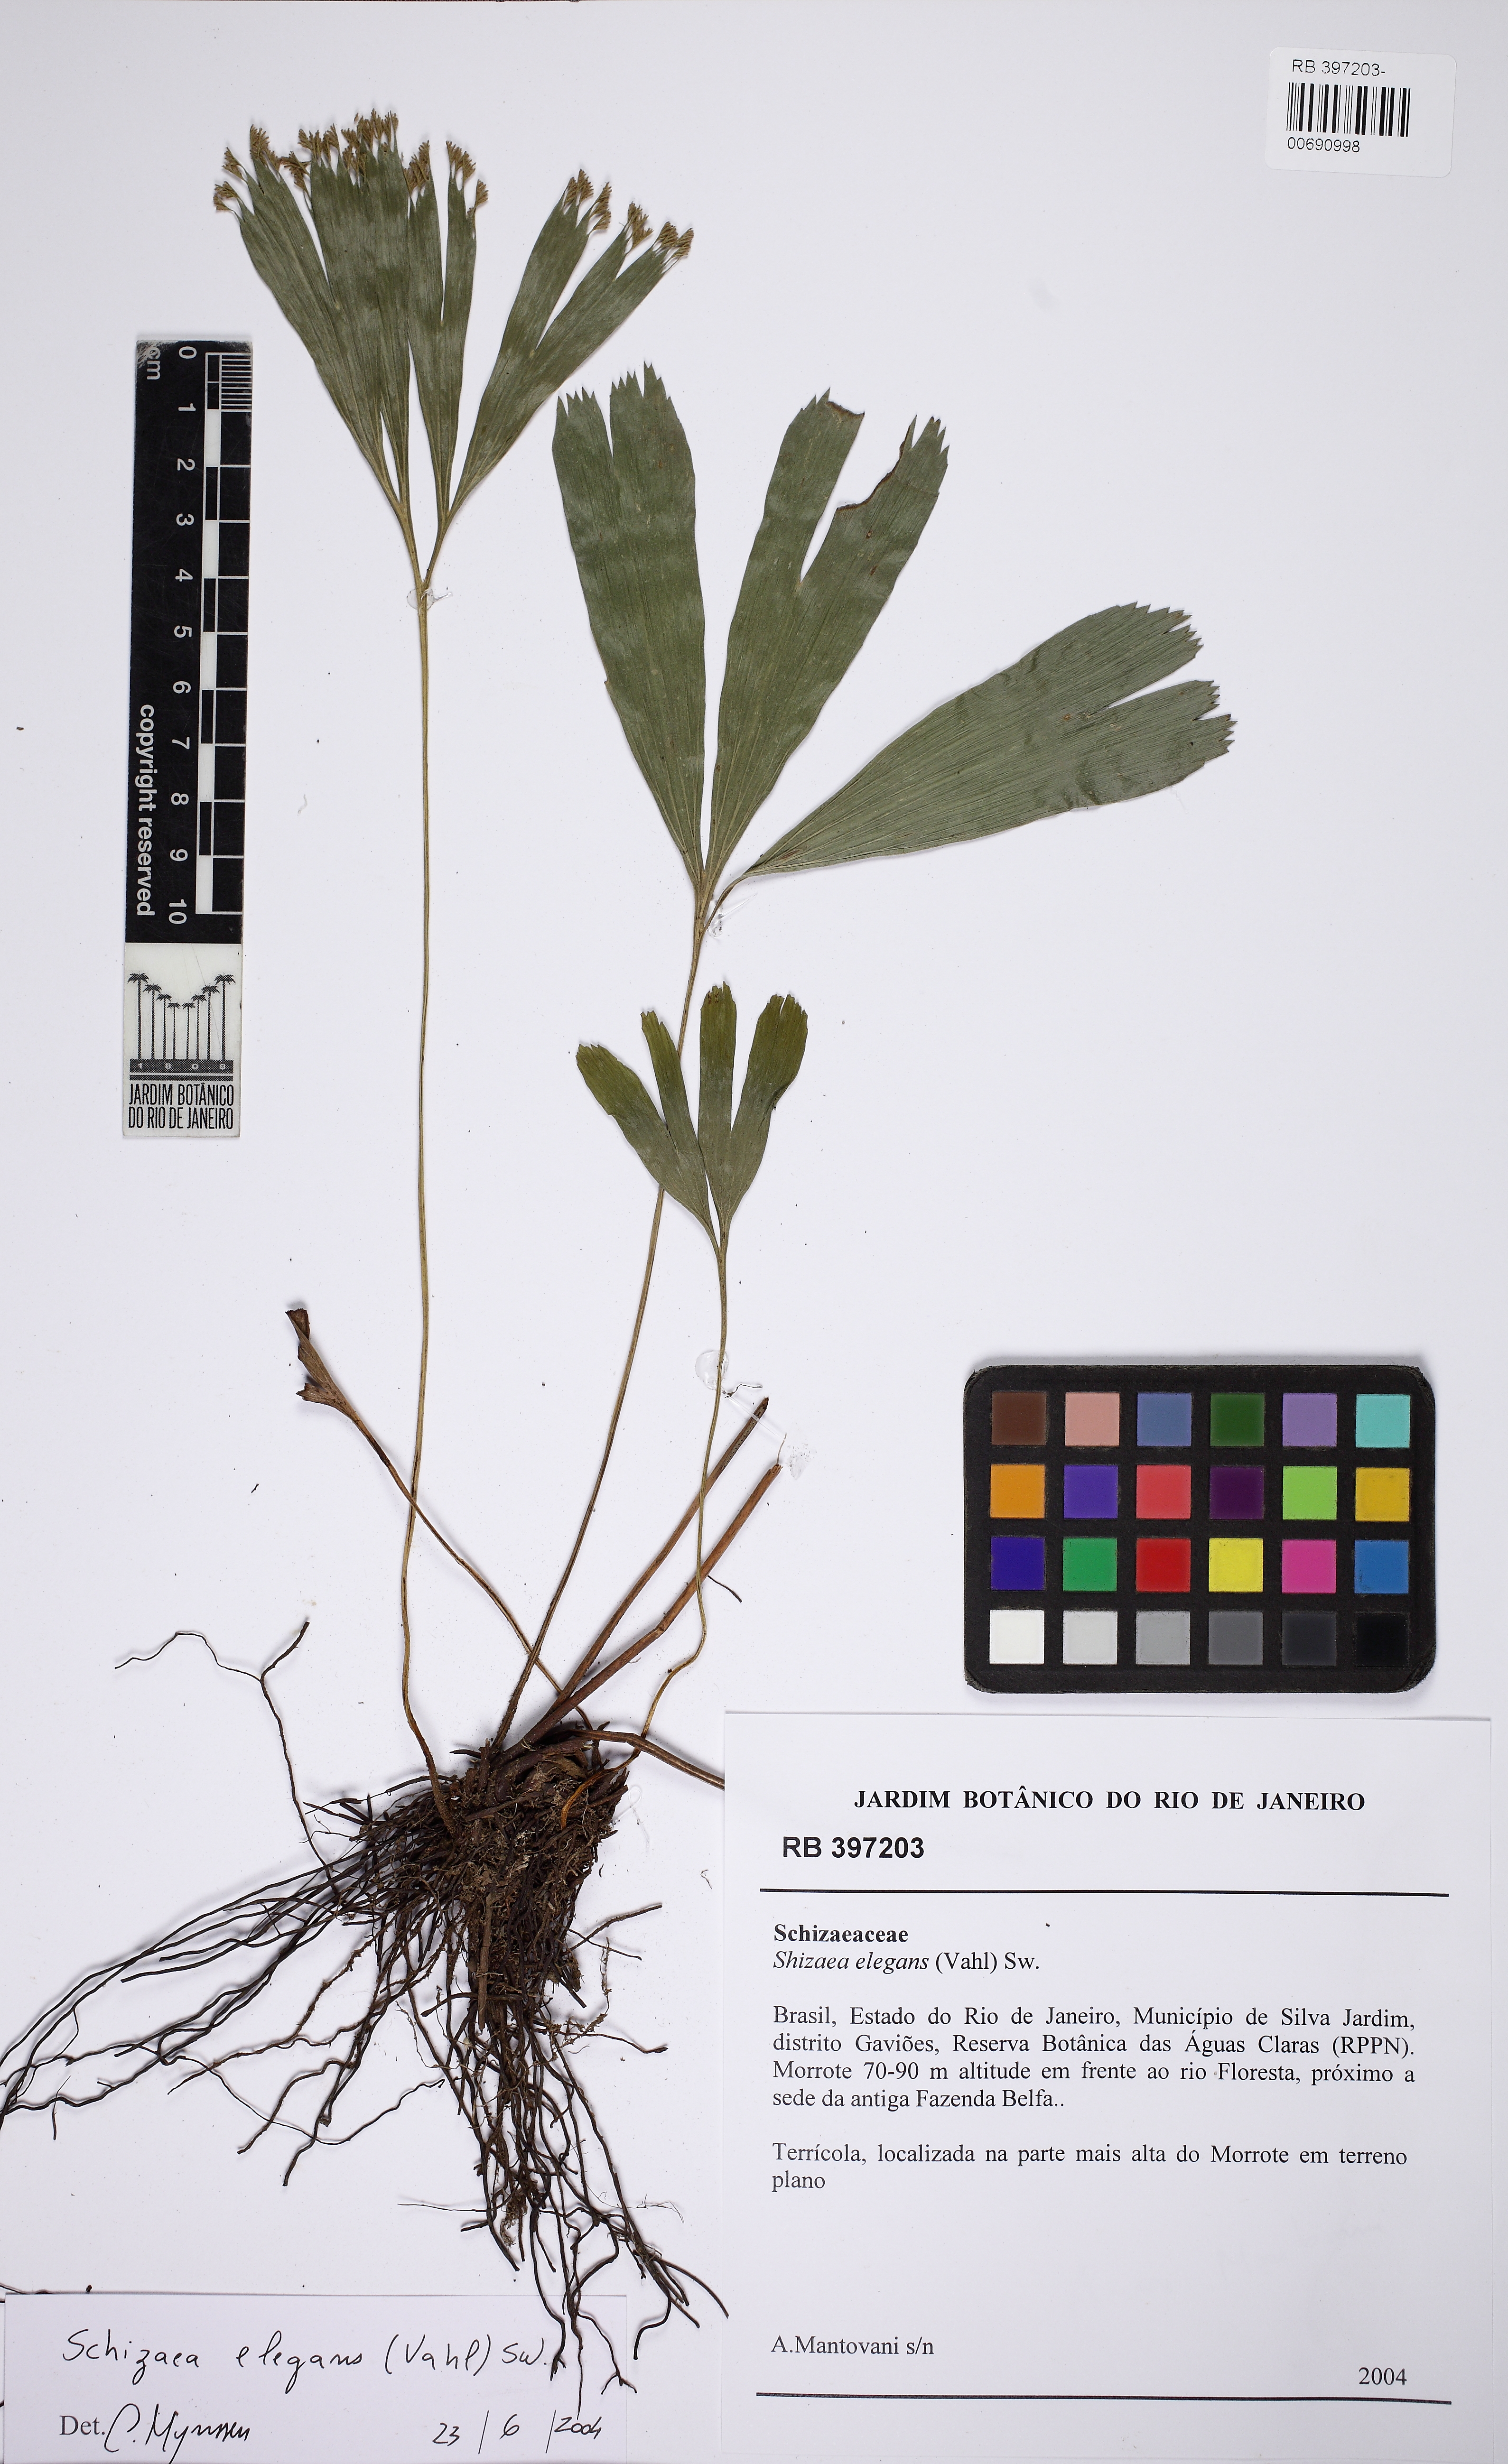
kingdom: Plantae
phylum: Tracheophyta
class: Polypodiopsida
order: Schizaeales
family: Schizaeaceae
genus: Schizaea
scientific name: Schizaea elegans
